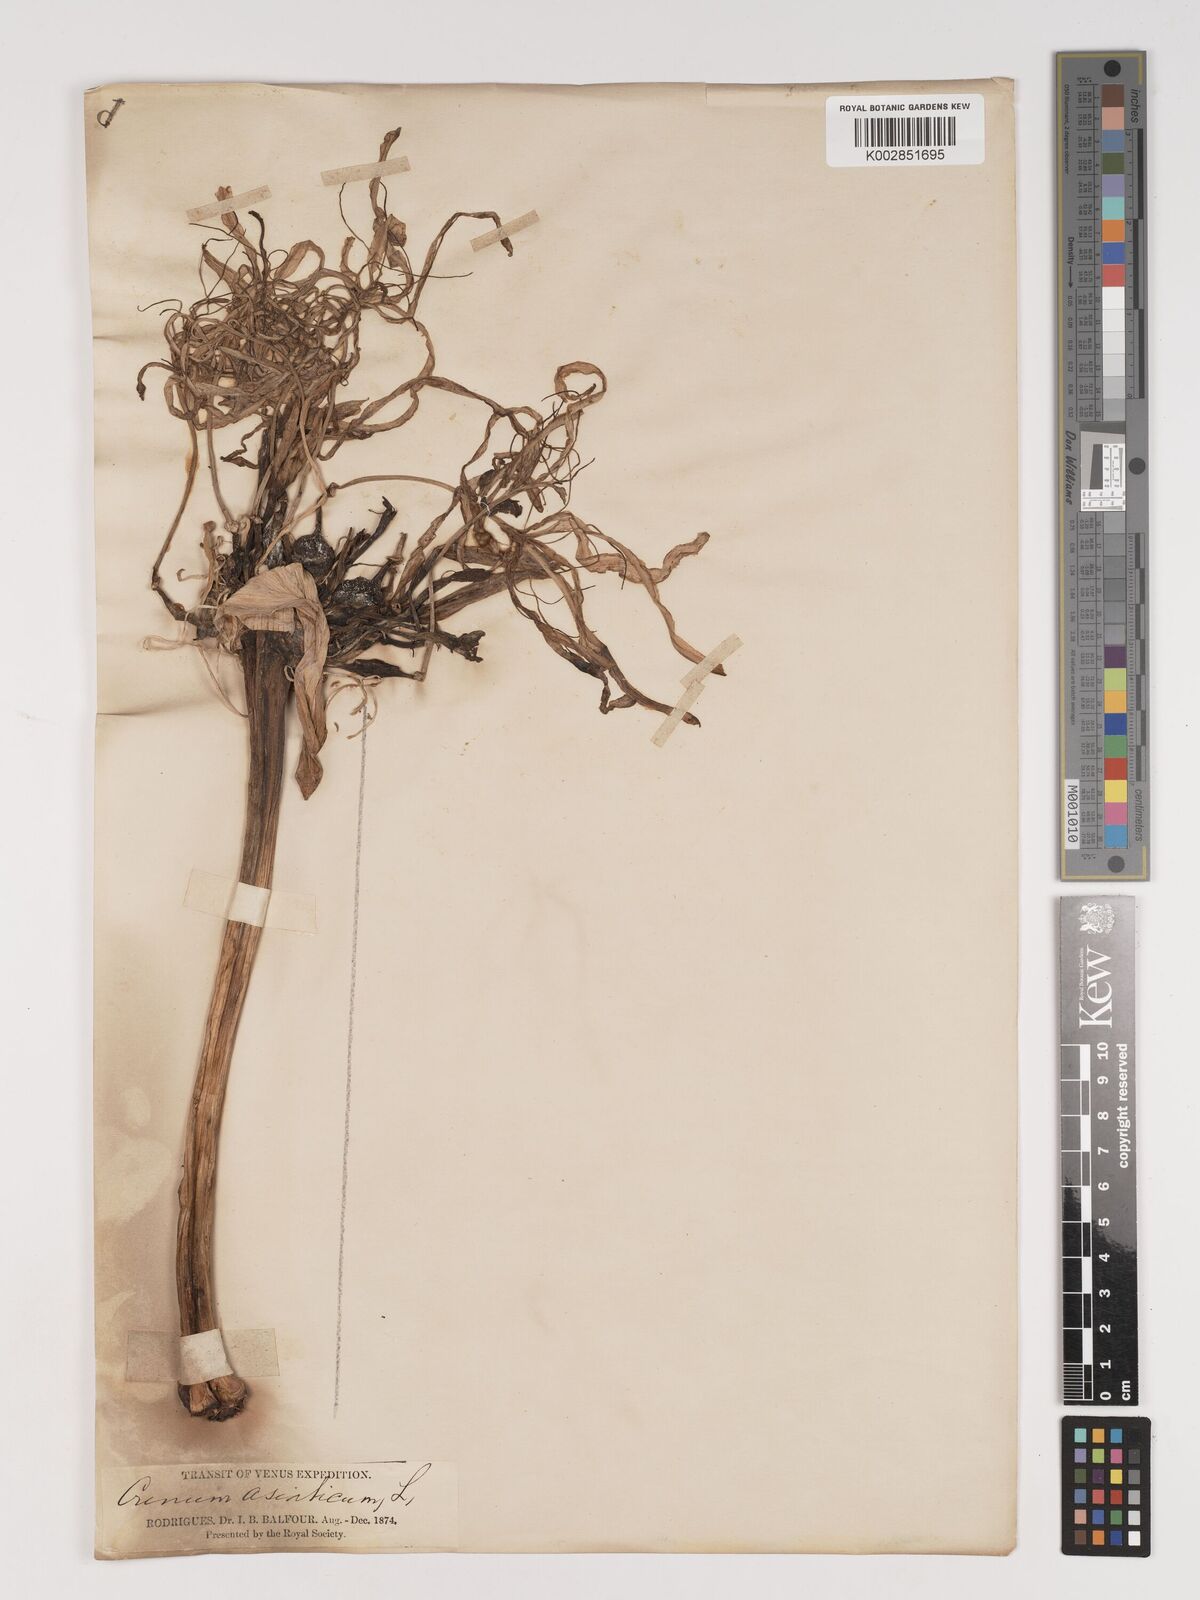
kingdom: Plantae
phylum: Tracheophyta
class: Liliopsida
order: Asparagales
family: Amaryllidaceae
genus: Crinum
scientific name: Crinum asiaticum
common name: Poisonbulb
